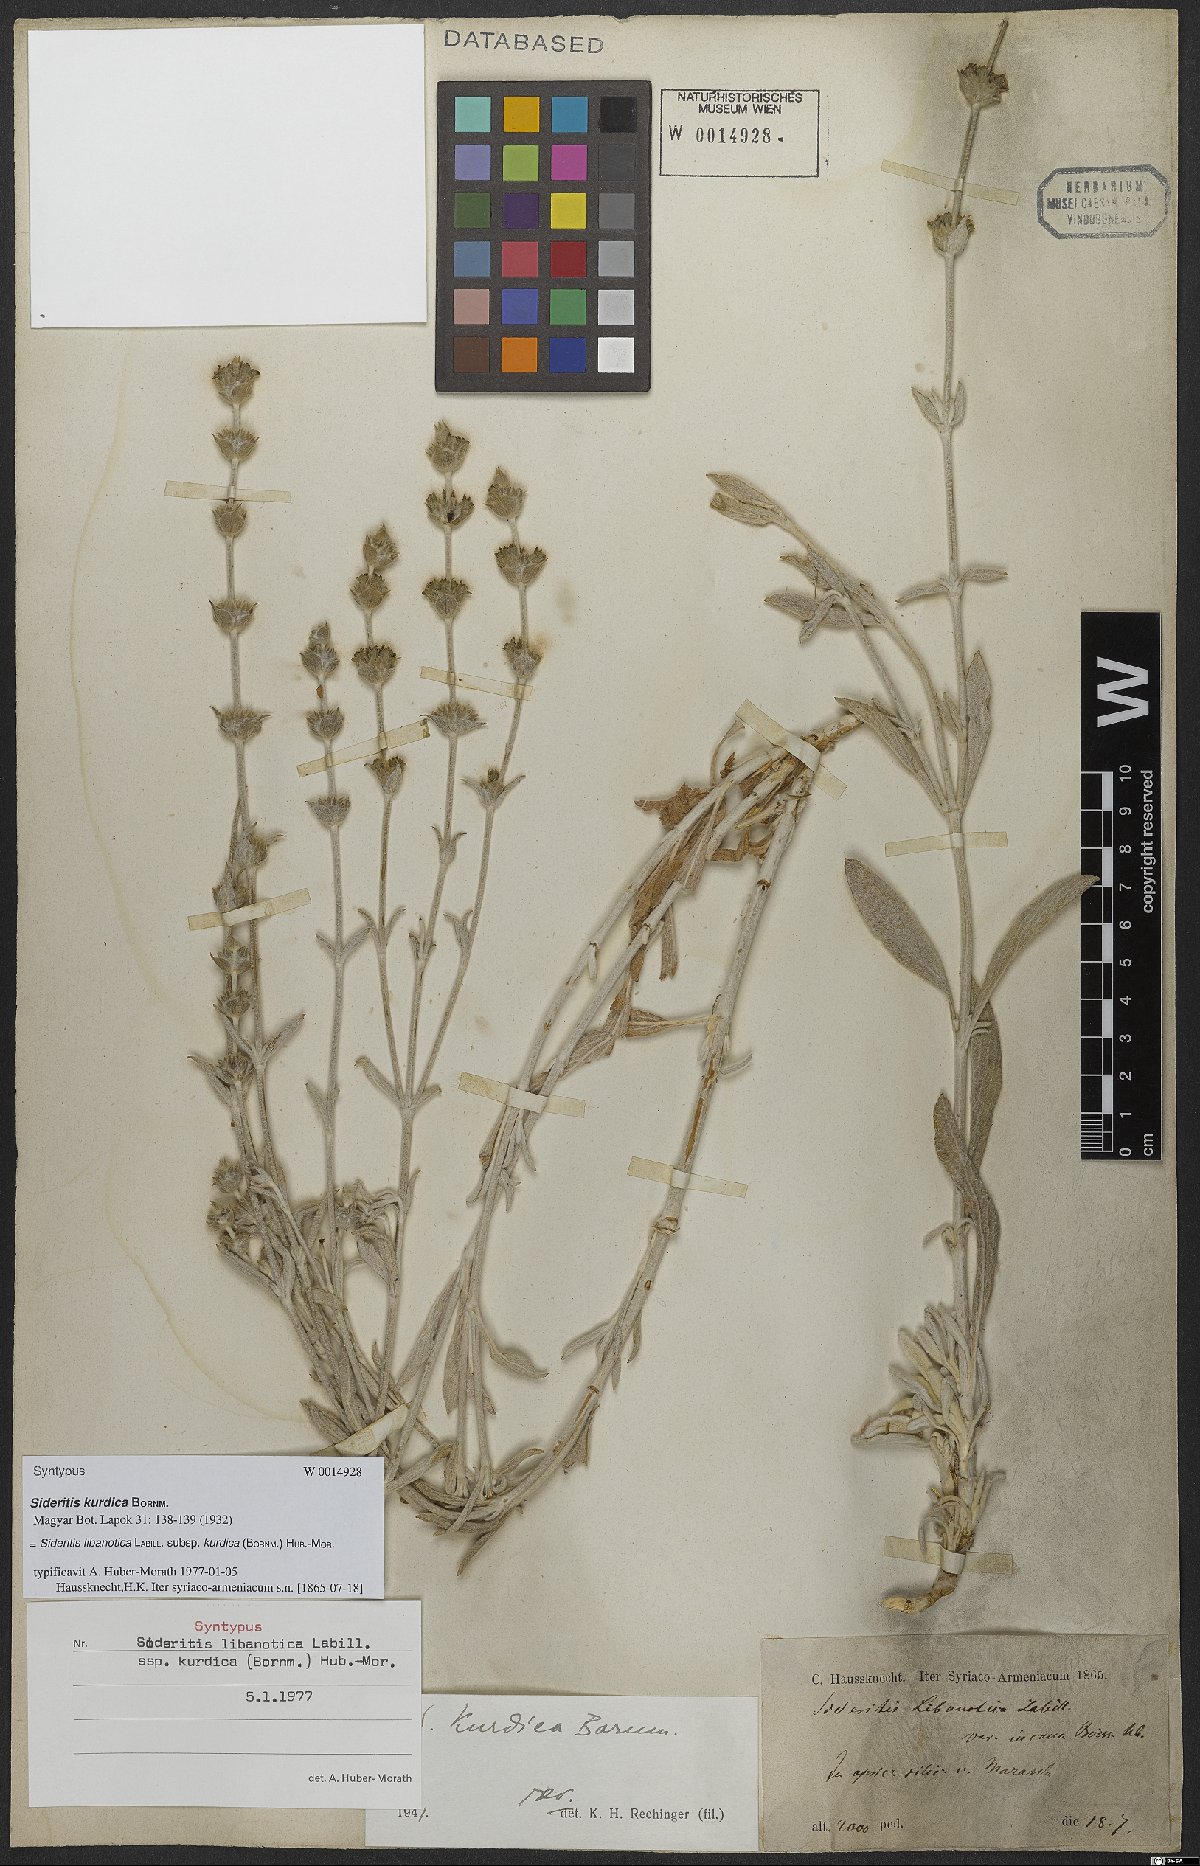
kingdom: Plantae
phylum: Tracheophyta
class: Magnoliopsida
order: Lamiales
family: Lamiaceae
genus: Sideritis
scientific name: Sideritis libanotica
